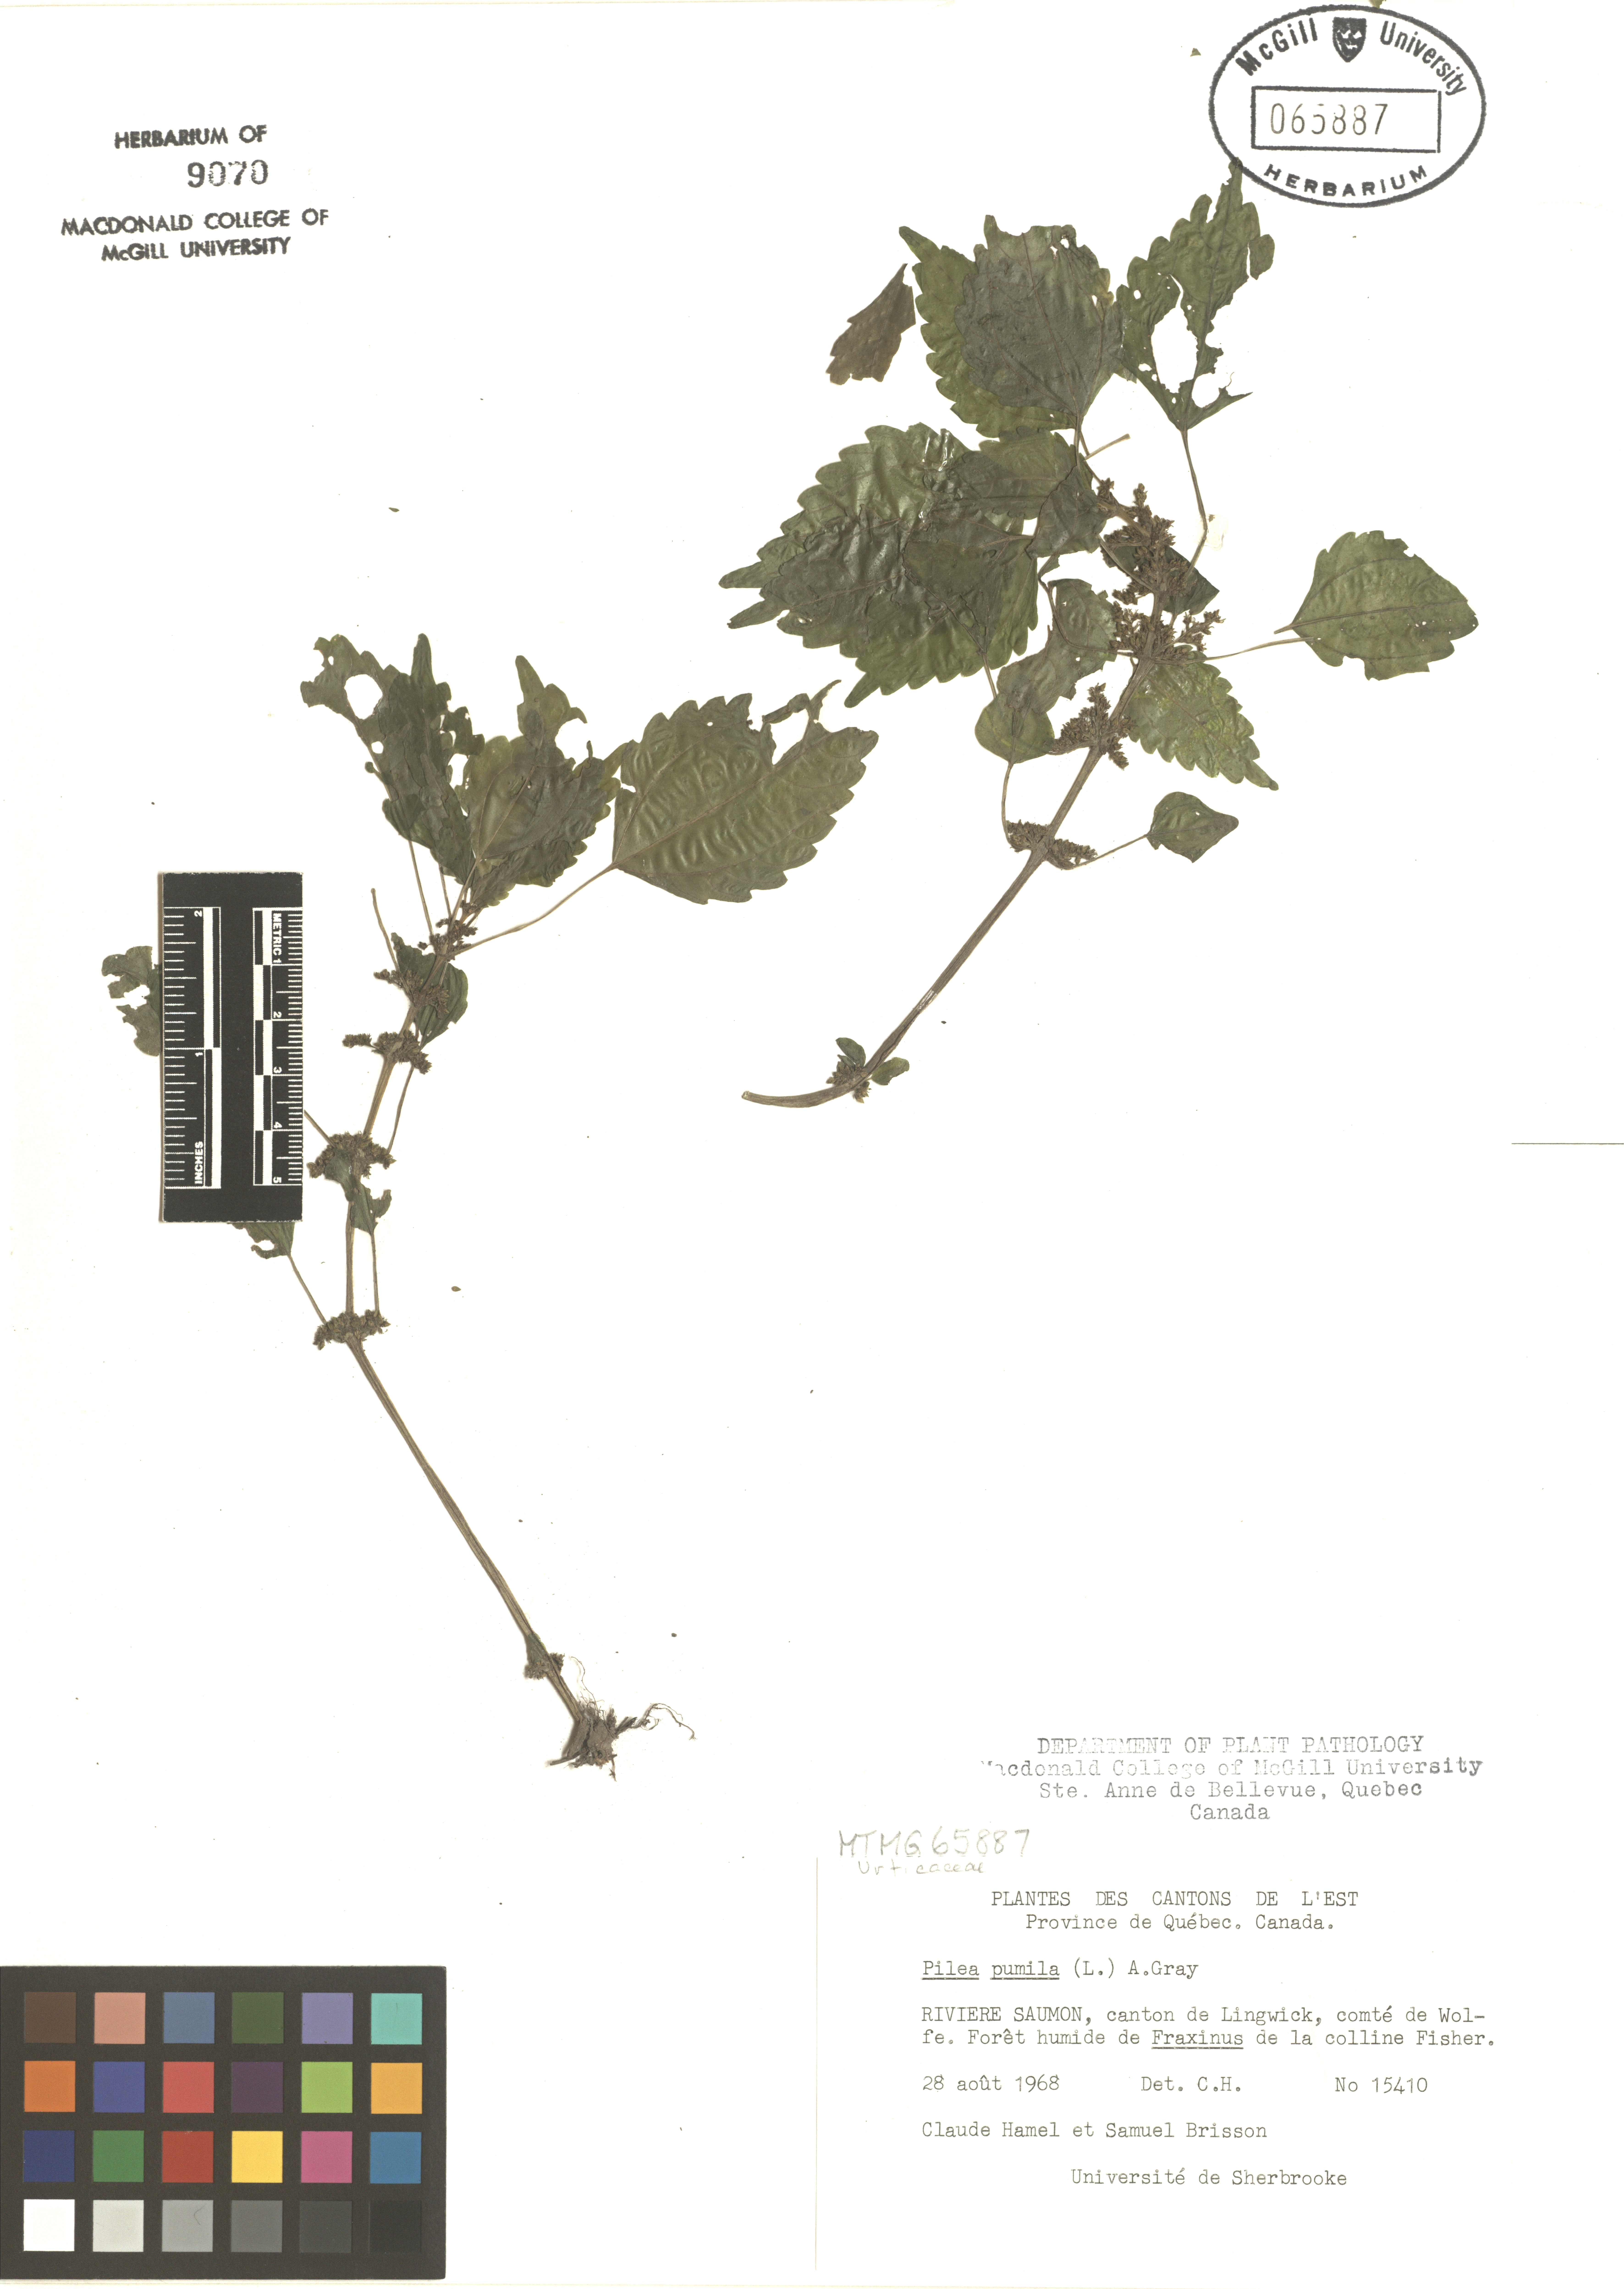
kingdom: Plantae
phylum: Tracheophyta
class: Magnoliopsida
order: Rosales
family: Urticaceae
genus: Pilea
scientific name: Pilea pumila
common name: Clearweed
